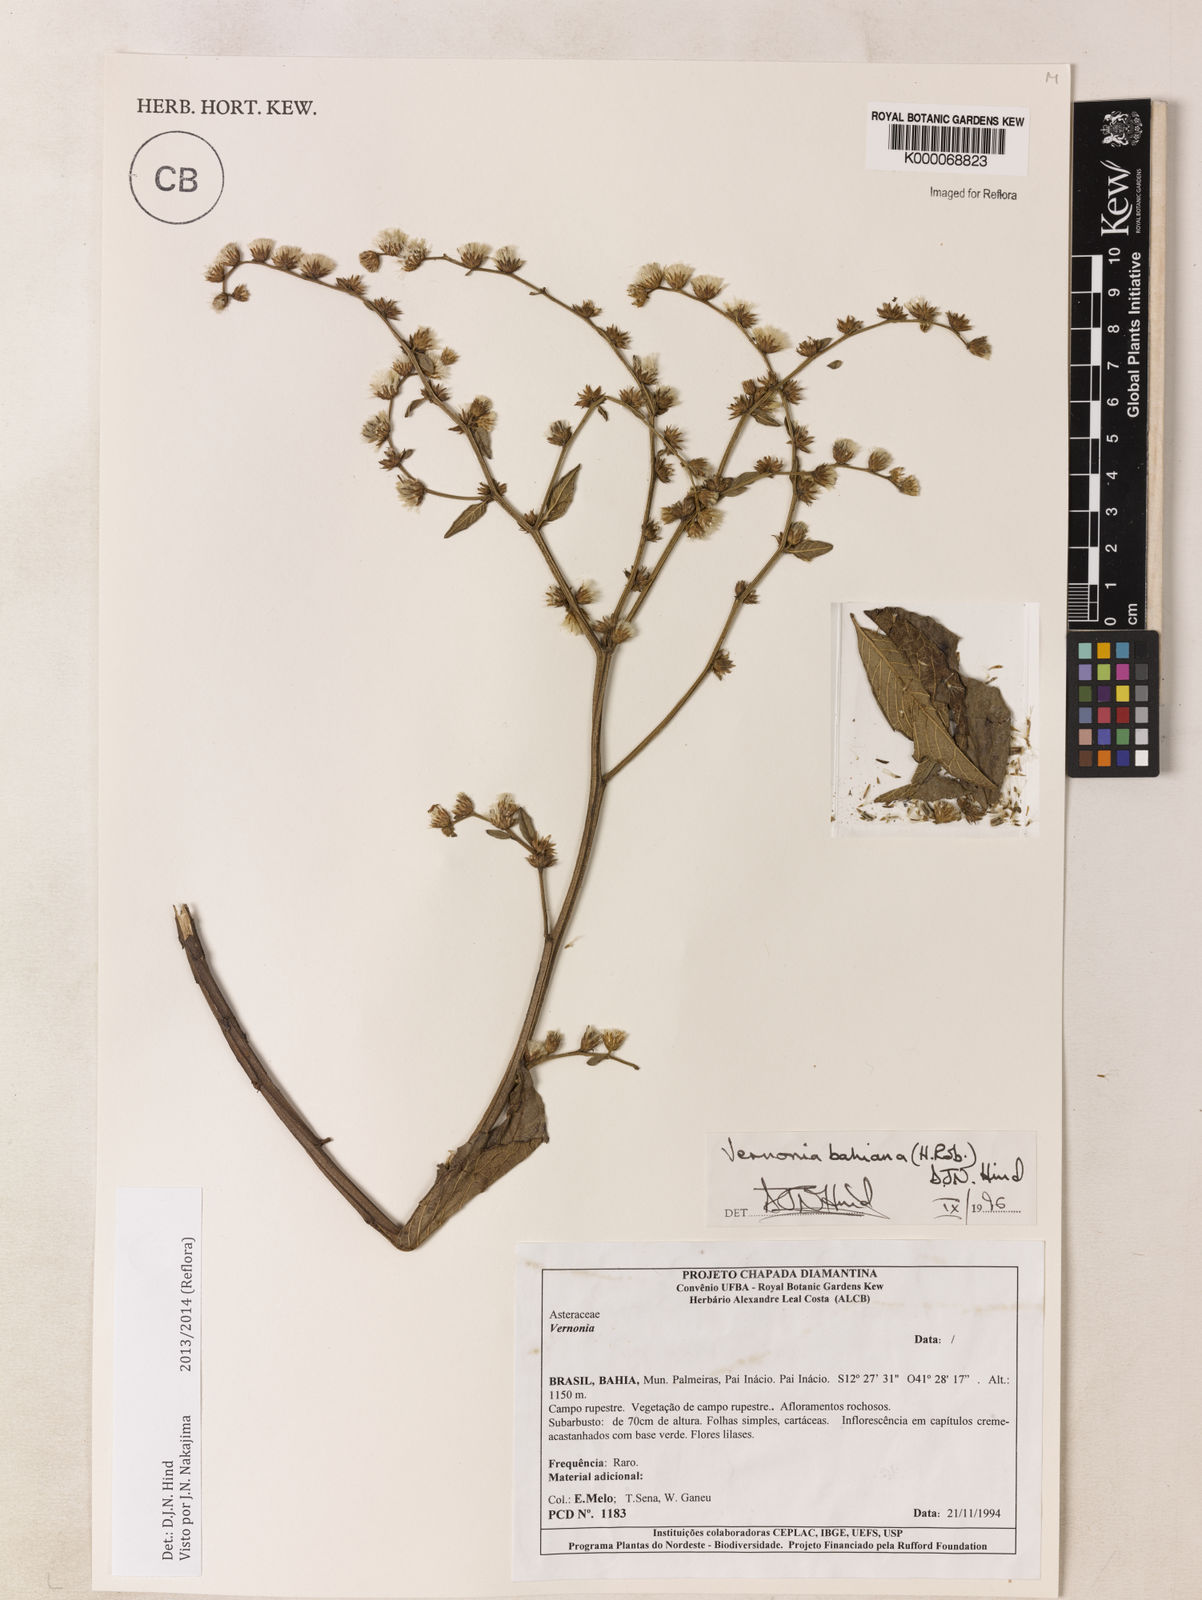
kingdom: Plantae
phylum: Tracheophyta
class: Magnoliopsida
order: Asterales
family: Asteraceae
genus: Lepidaploa
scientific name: Lepidaploa bahiana
